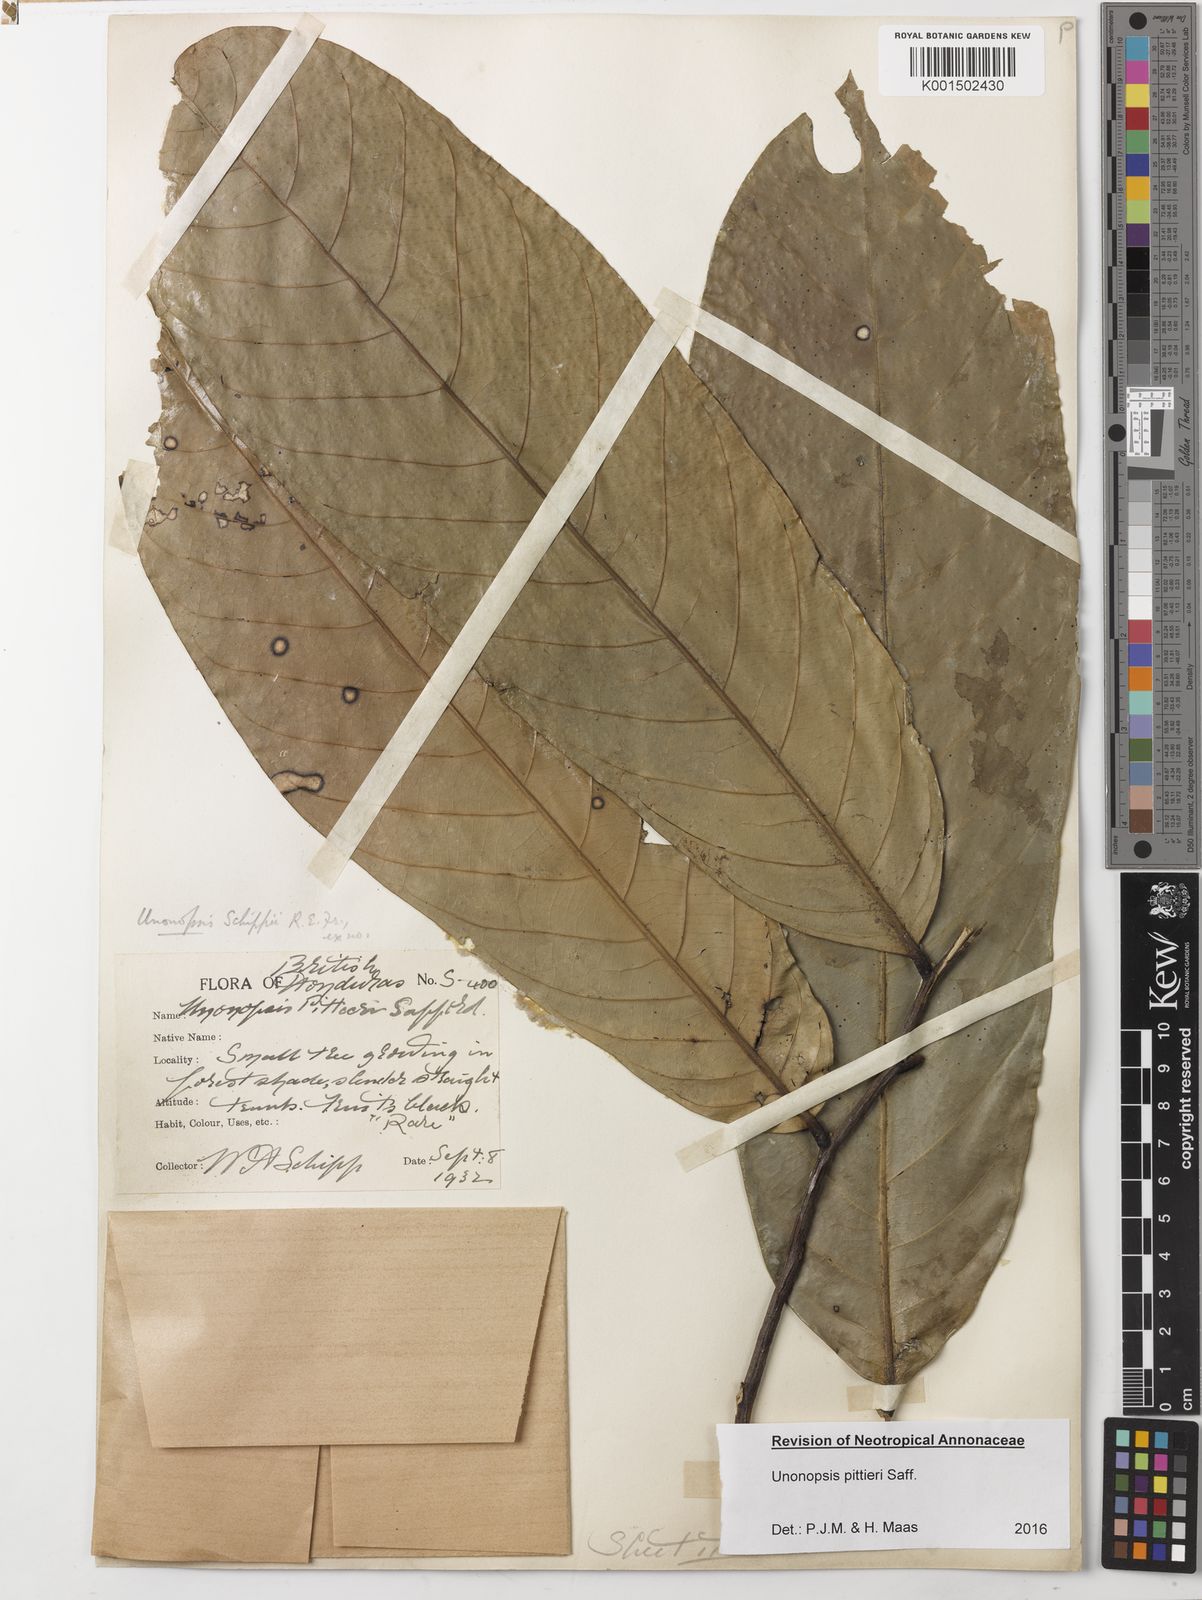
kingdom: Plantae
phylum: Tracheophyta
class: Magnoliopsida
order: Magnoliales
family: Annonaceae
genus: Unonopsis
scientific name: Unonopsis pittieri
